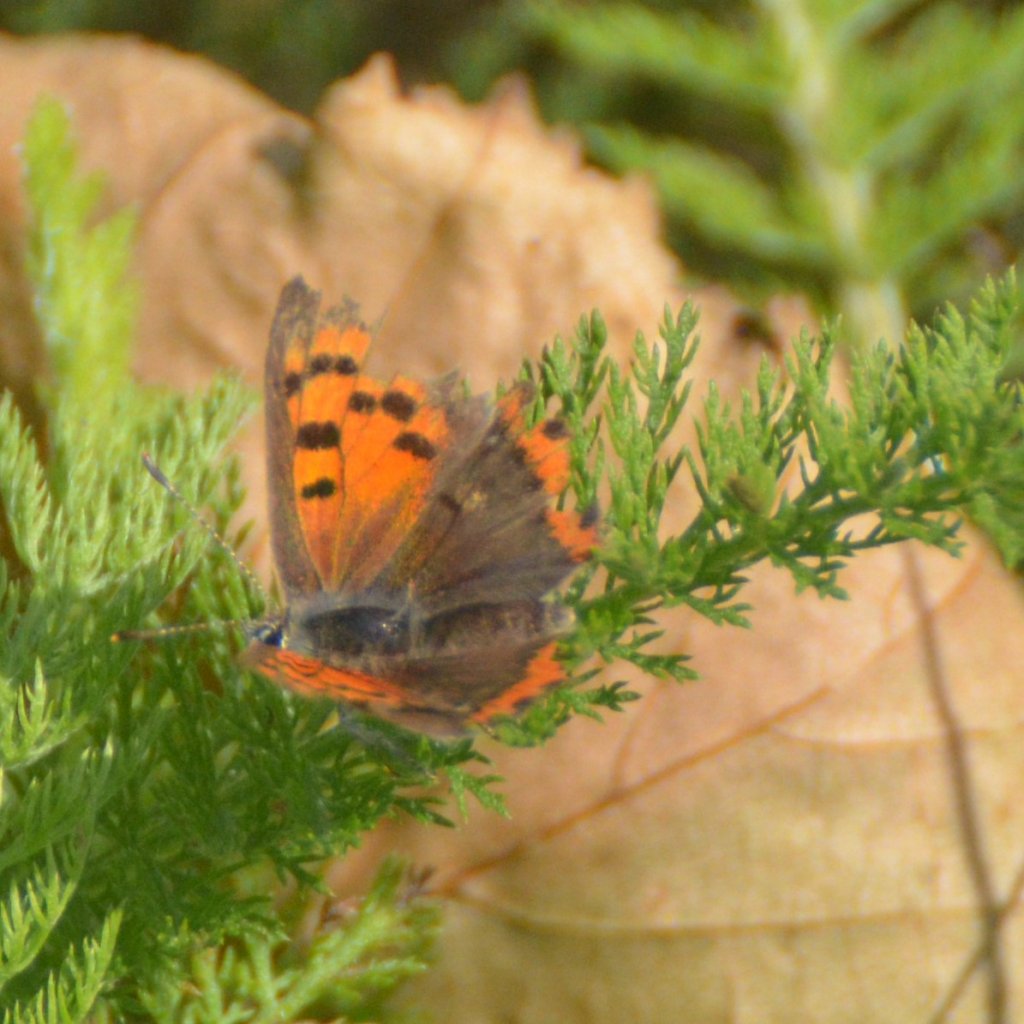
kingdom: Animalia
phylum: Arthropoda
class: Insecta
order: Lepidoptera
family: Lycaenidae
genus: Lycaena
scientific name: Lycaena phlaeas
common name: American Copper
